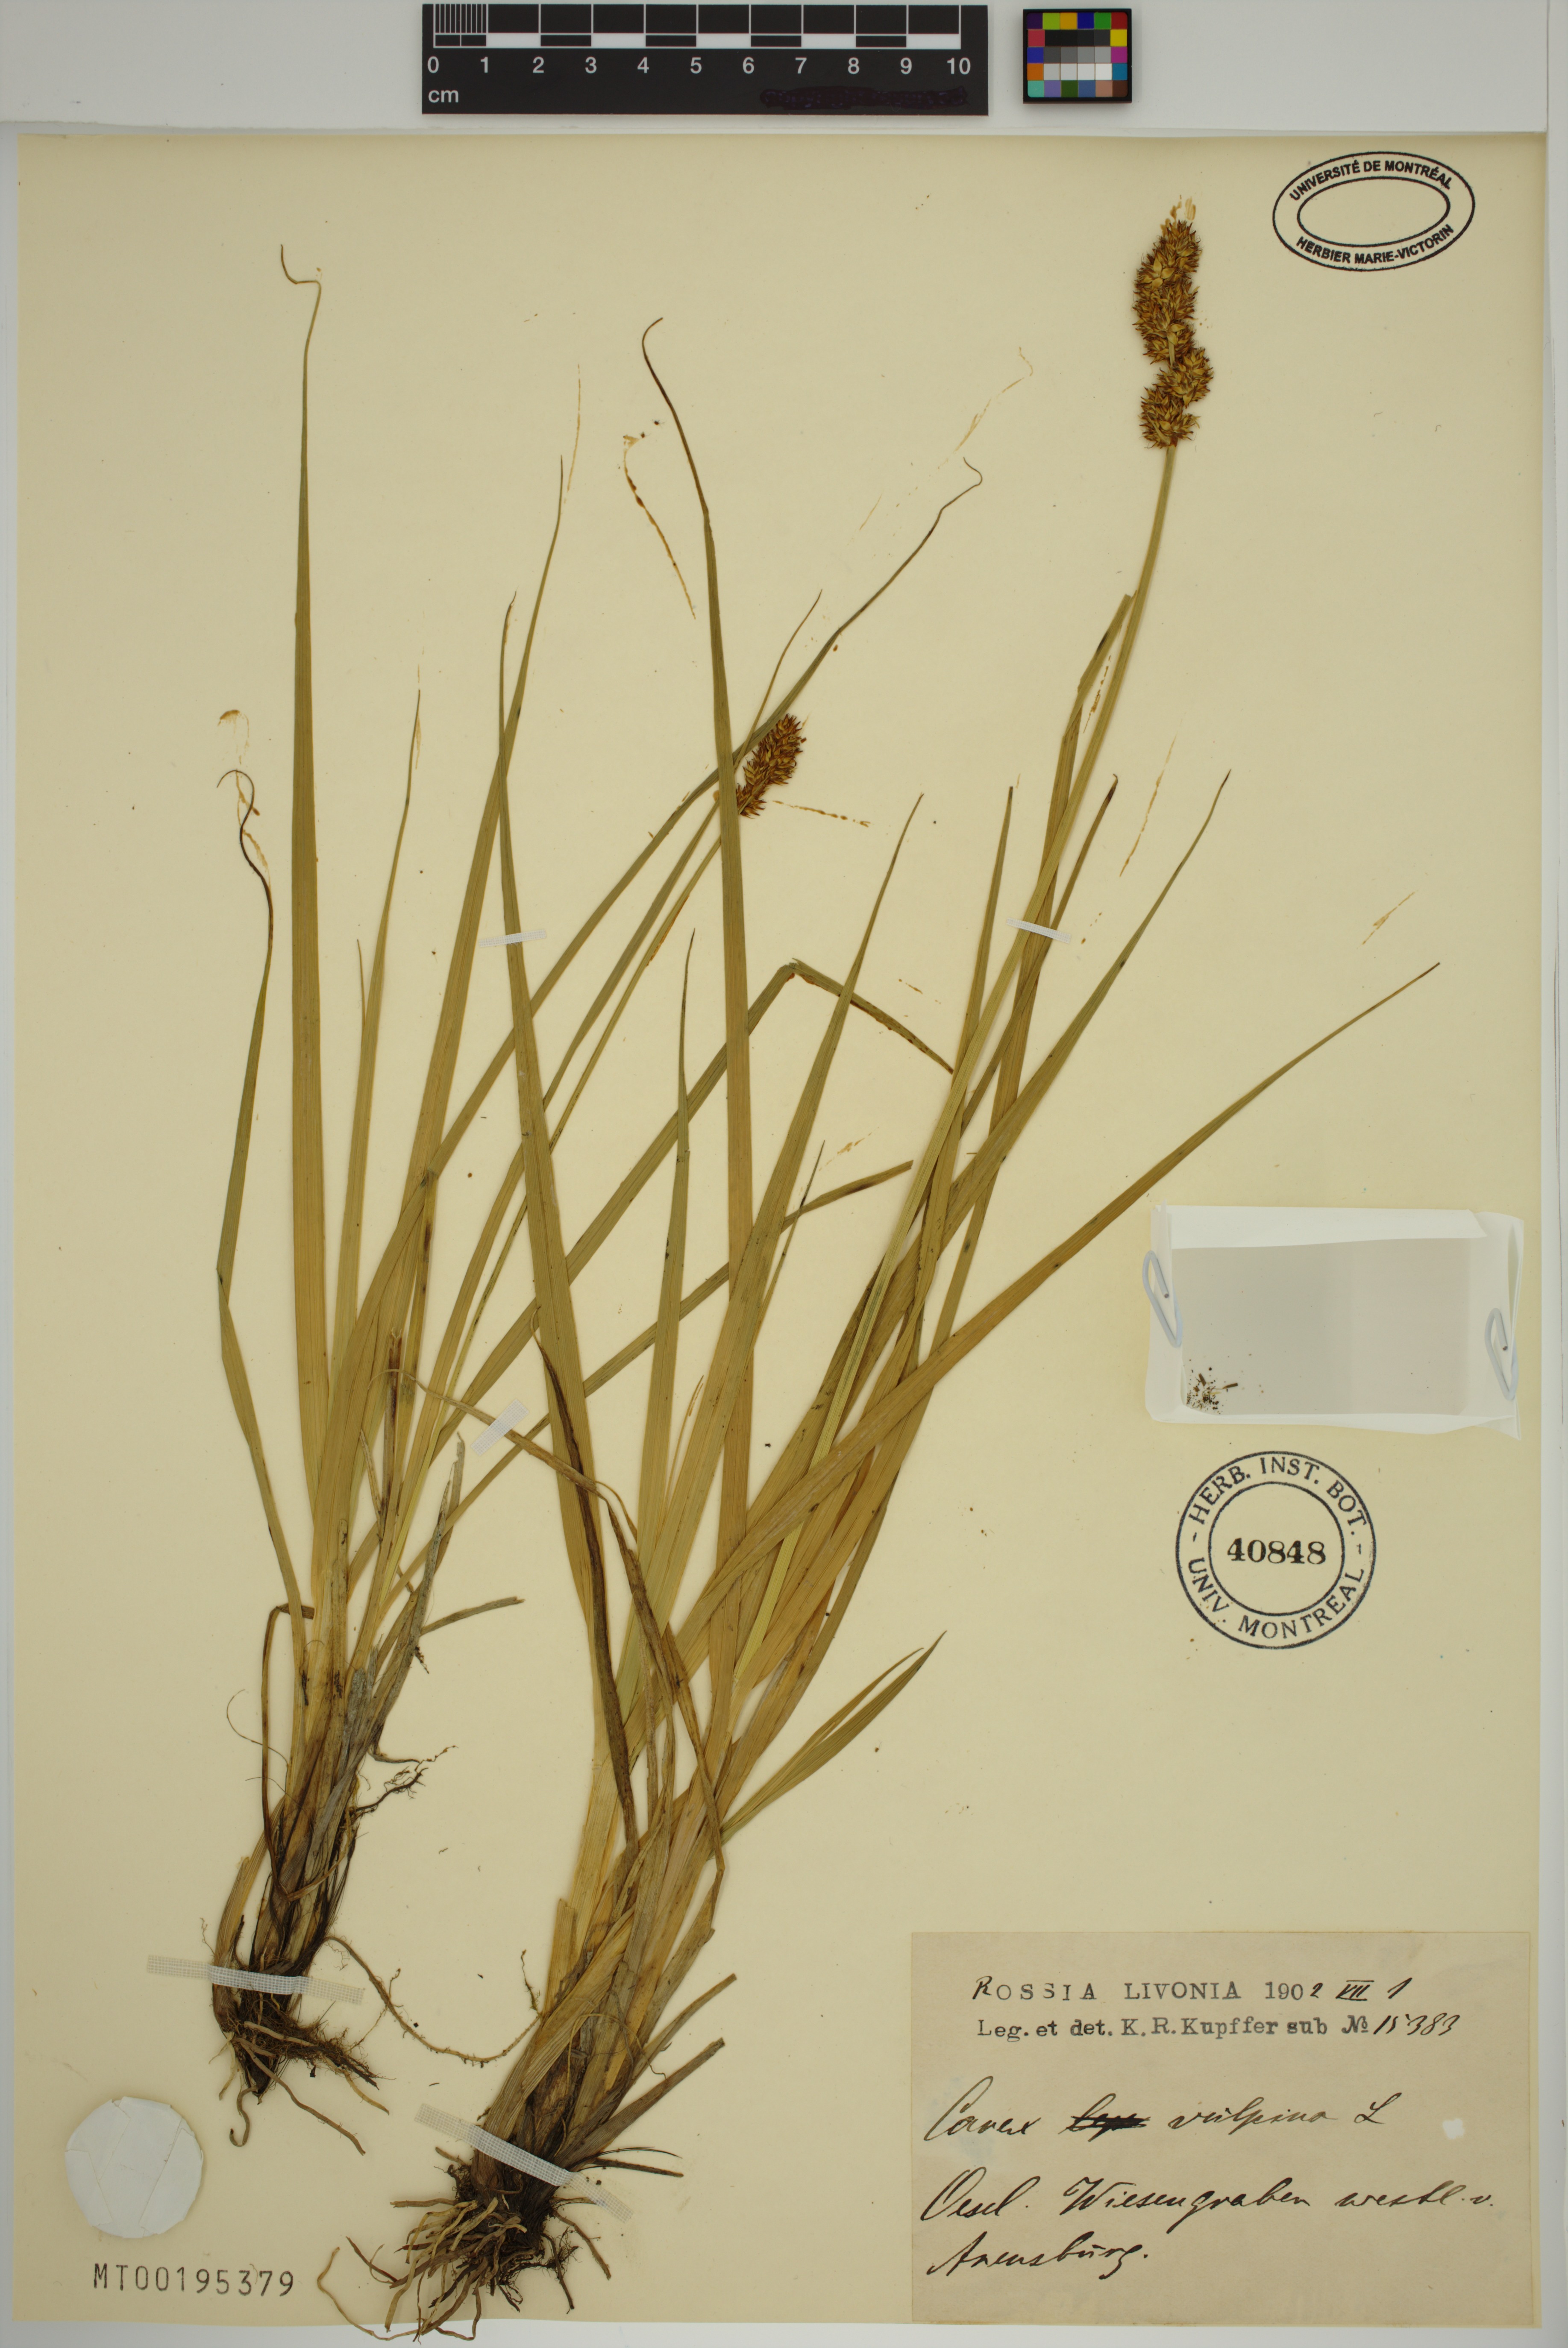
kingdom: Plantae
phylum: Tracheophyta
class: Liliopsida
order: Poales
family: Cyperaceae
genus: Carex
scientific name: Carex vulpina
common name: True fox-sedge
